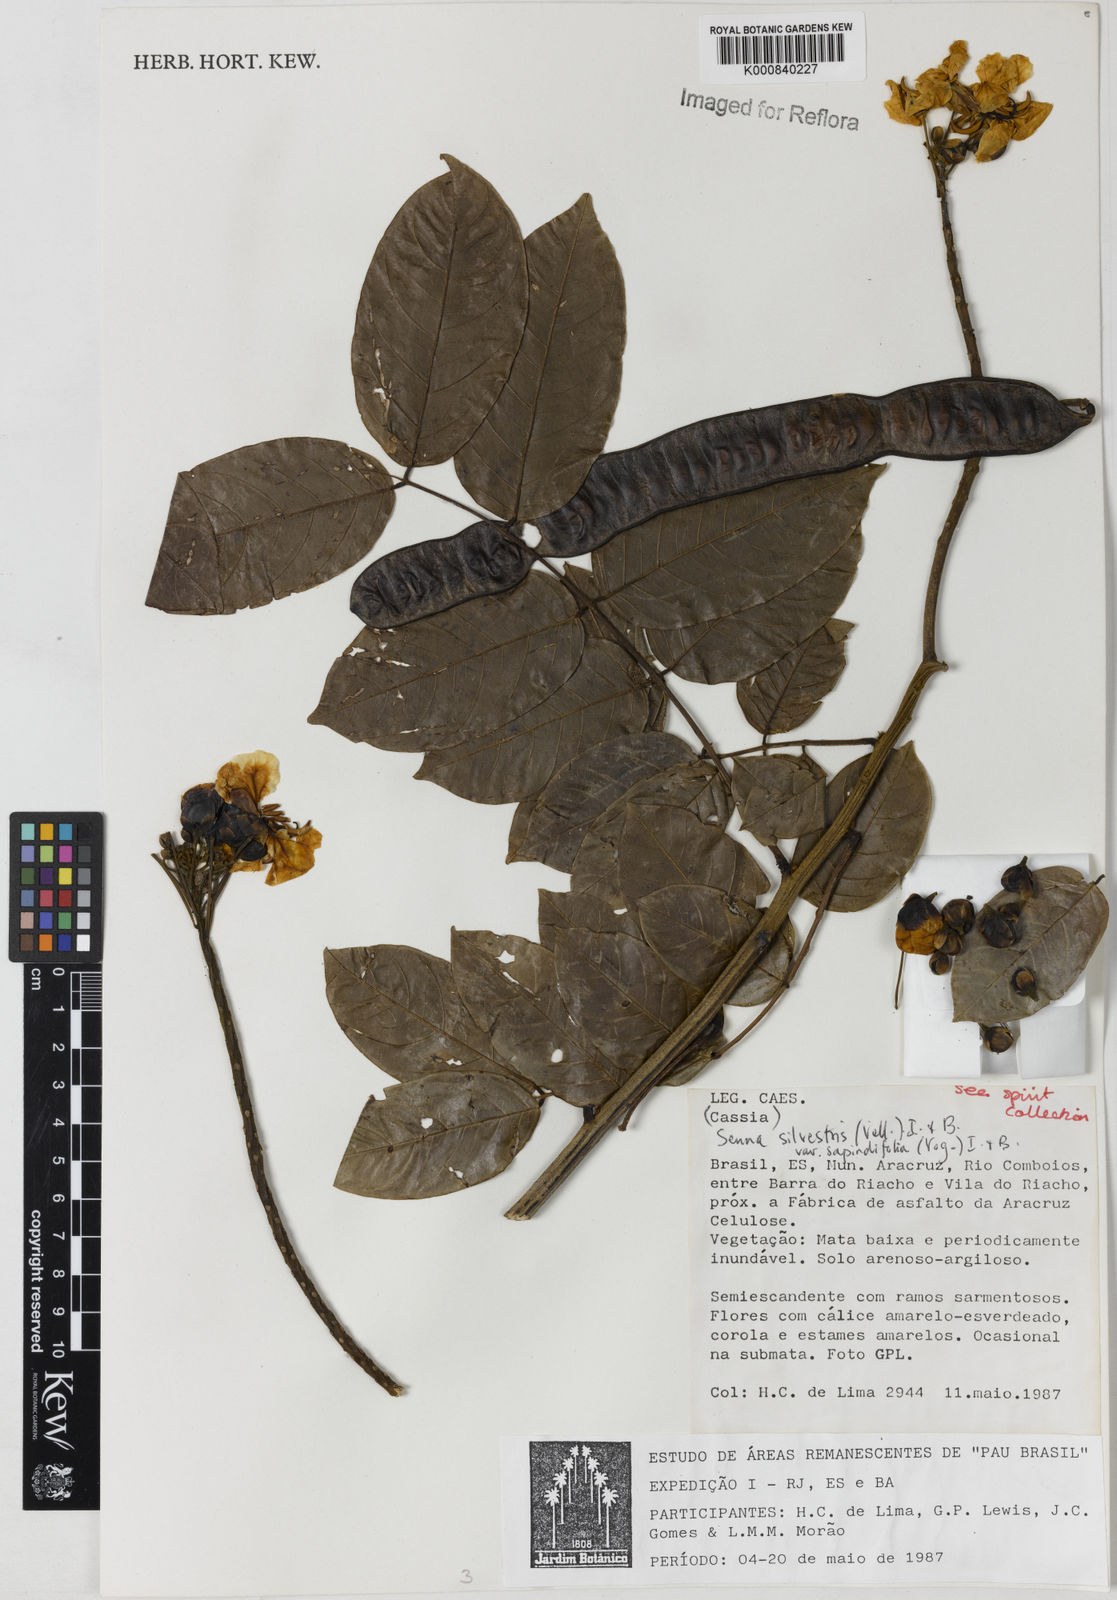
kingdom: Plantae
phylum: Tracheophyta
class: Magnoliopsida
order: Fabales
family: Fabaceae
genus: Senna
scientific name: Senna silvestris
